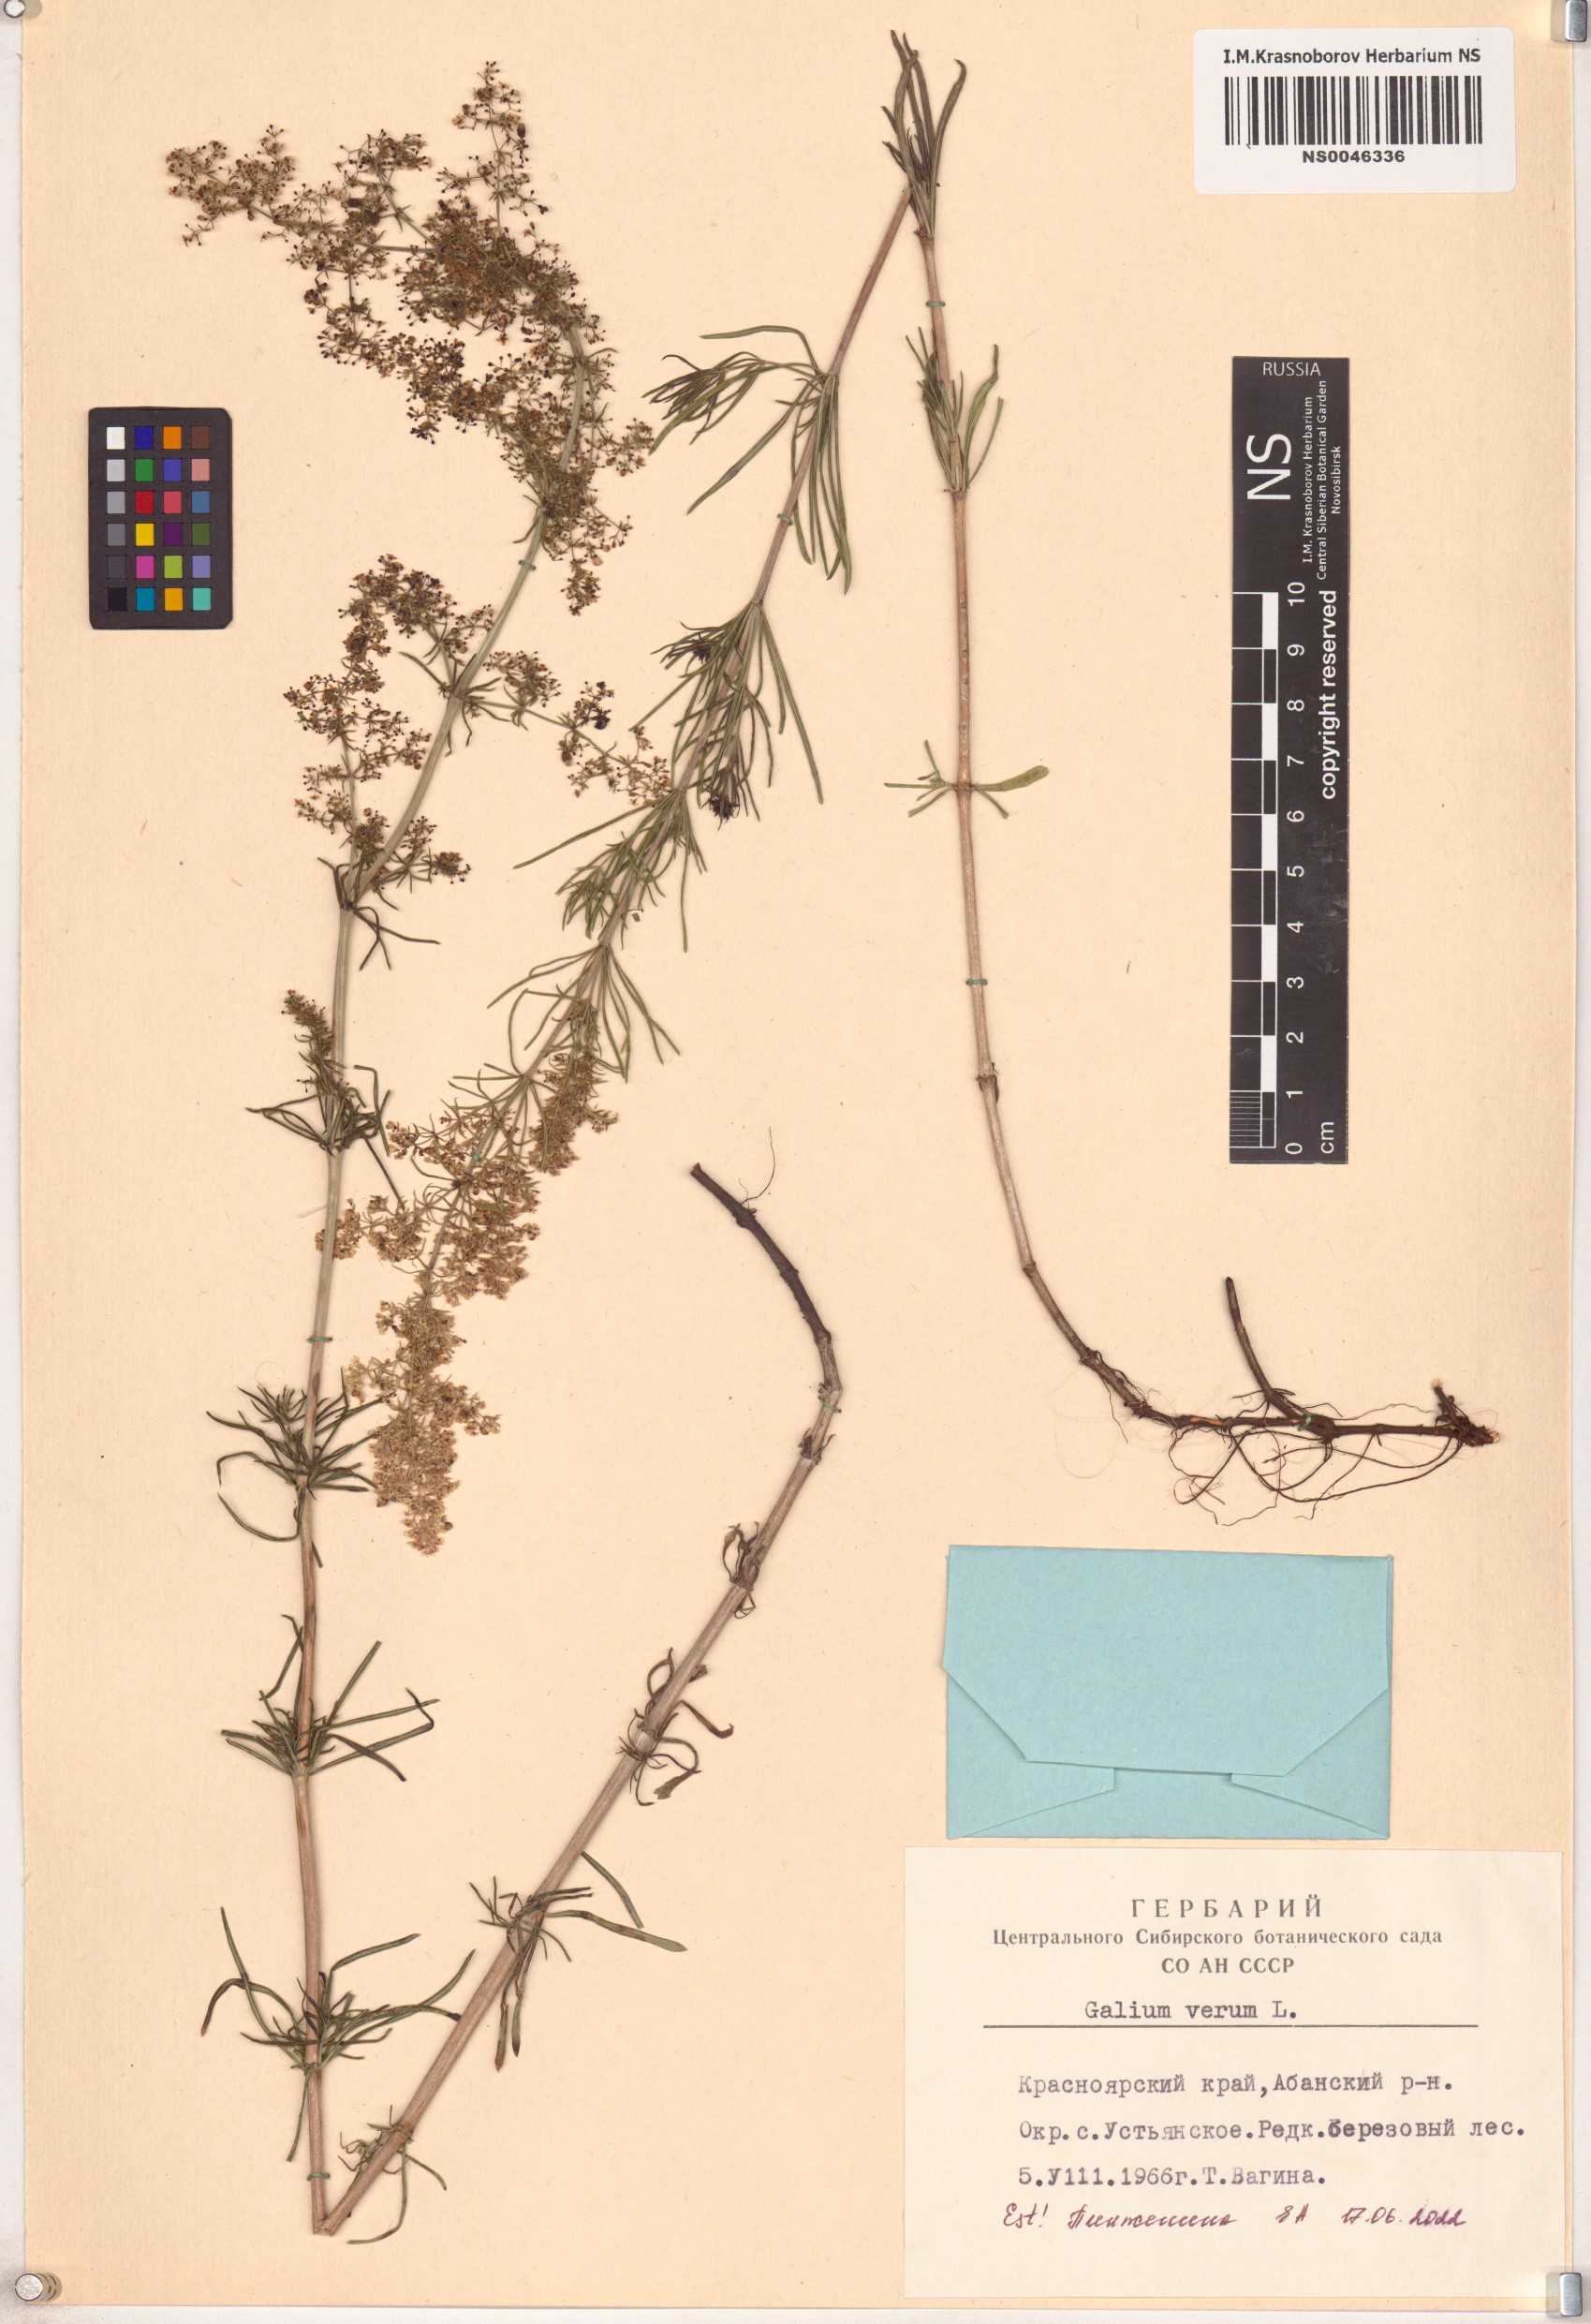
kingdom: Plantae
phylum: Tracheophyta
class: Magnoliopsida
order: Gentianales
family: Rubiaceae
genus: Galium
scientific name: Galium verum
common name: Lady's bedstraw
